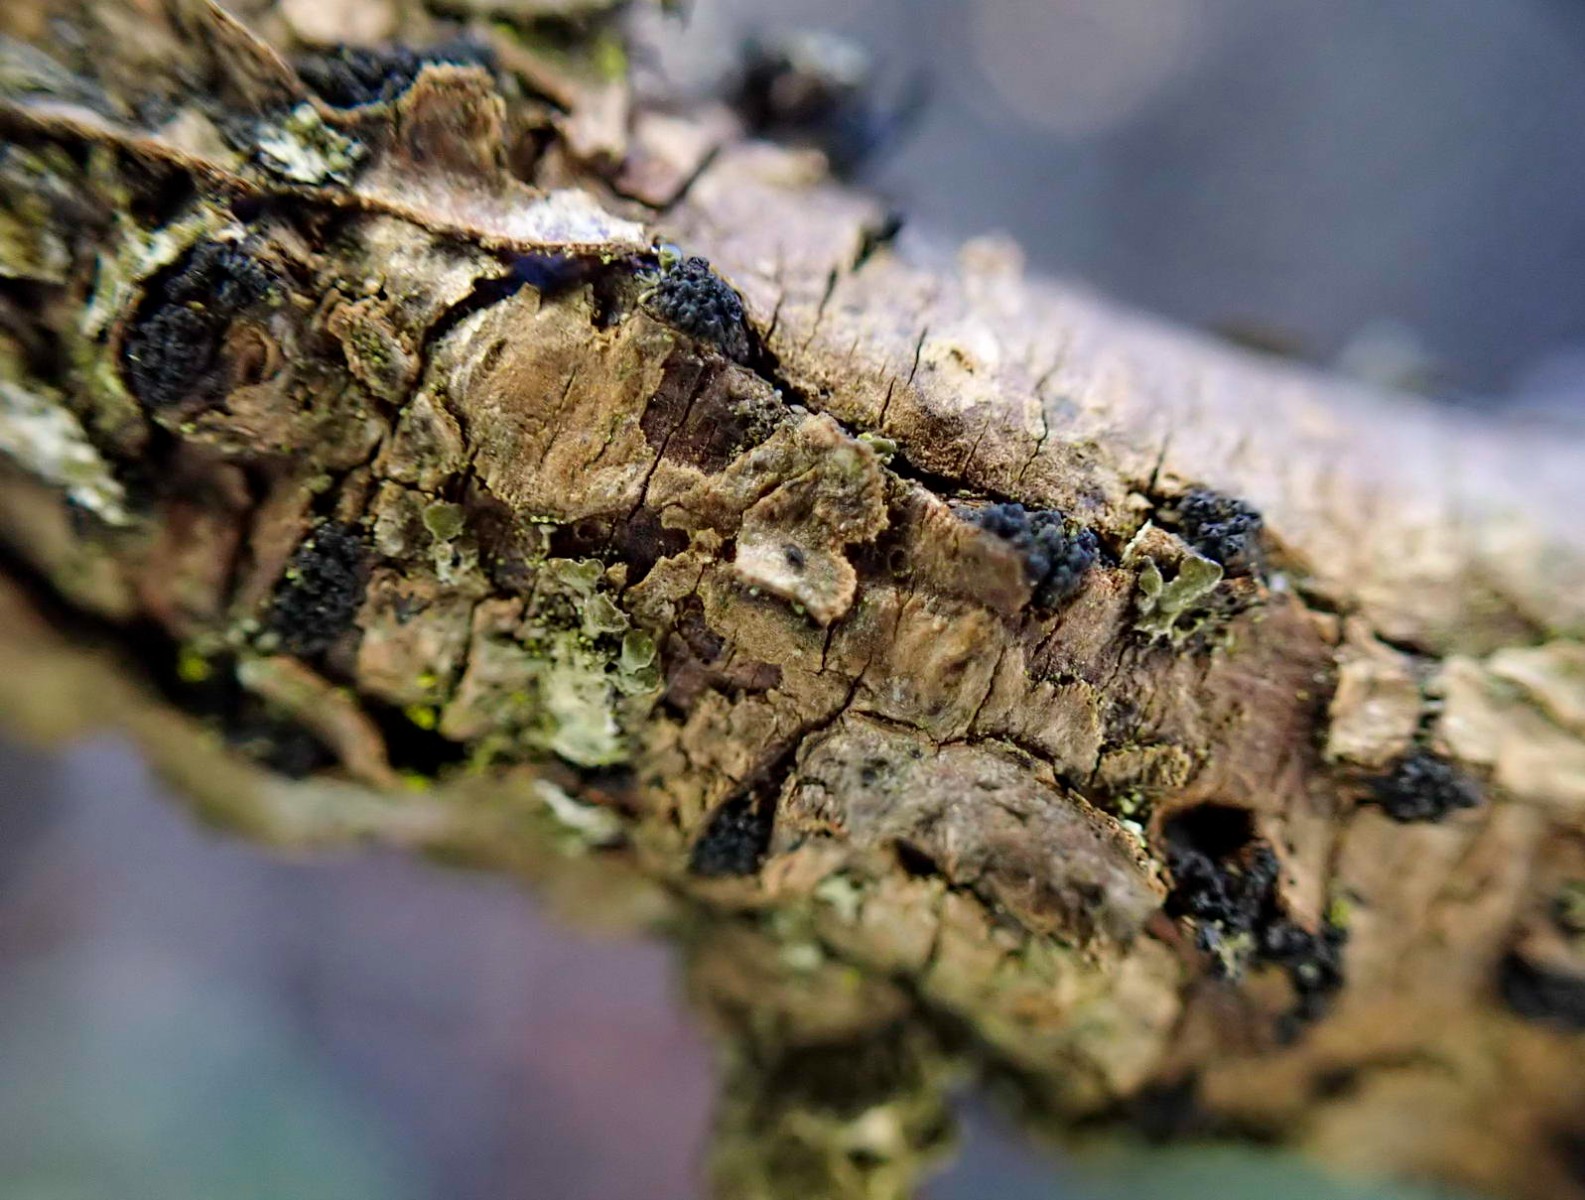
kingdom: Fungi
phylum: Ascomycota
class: Sordariomycetes
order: Xylariales
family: Diatrypaceae
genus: Eutypella
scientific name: Eutypella prunastri
